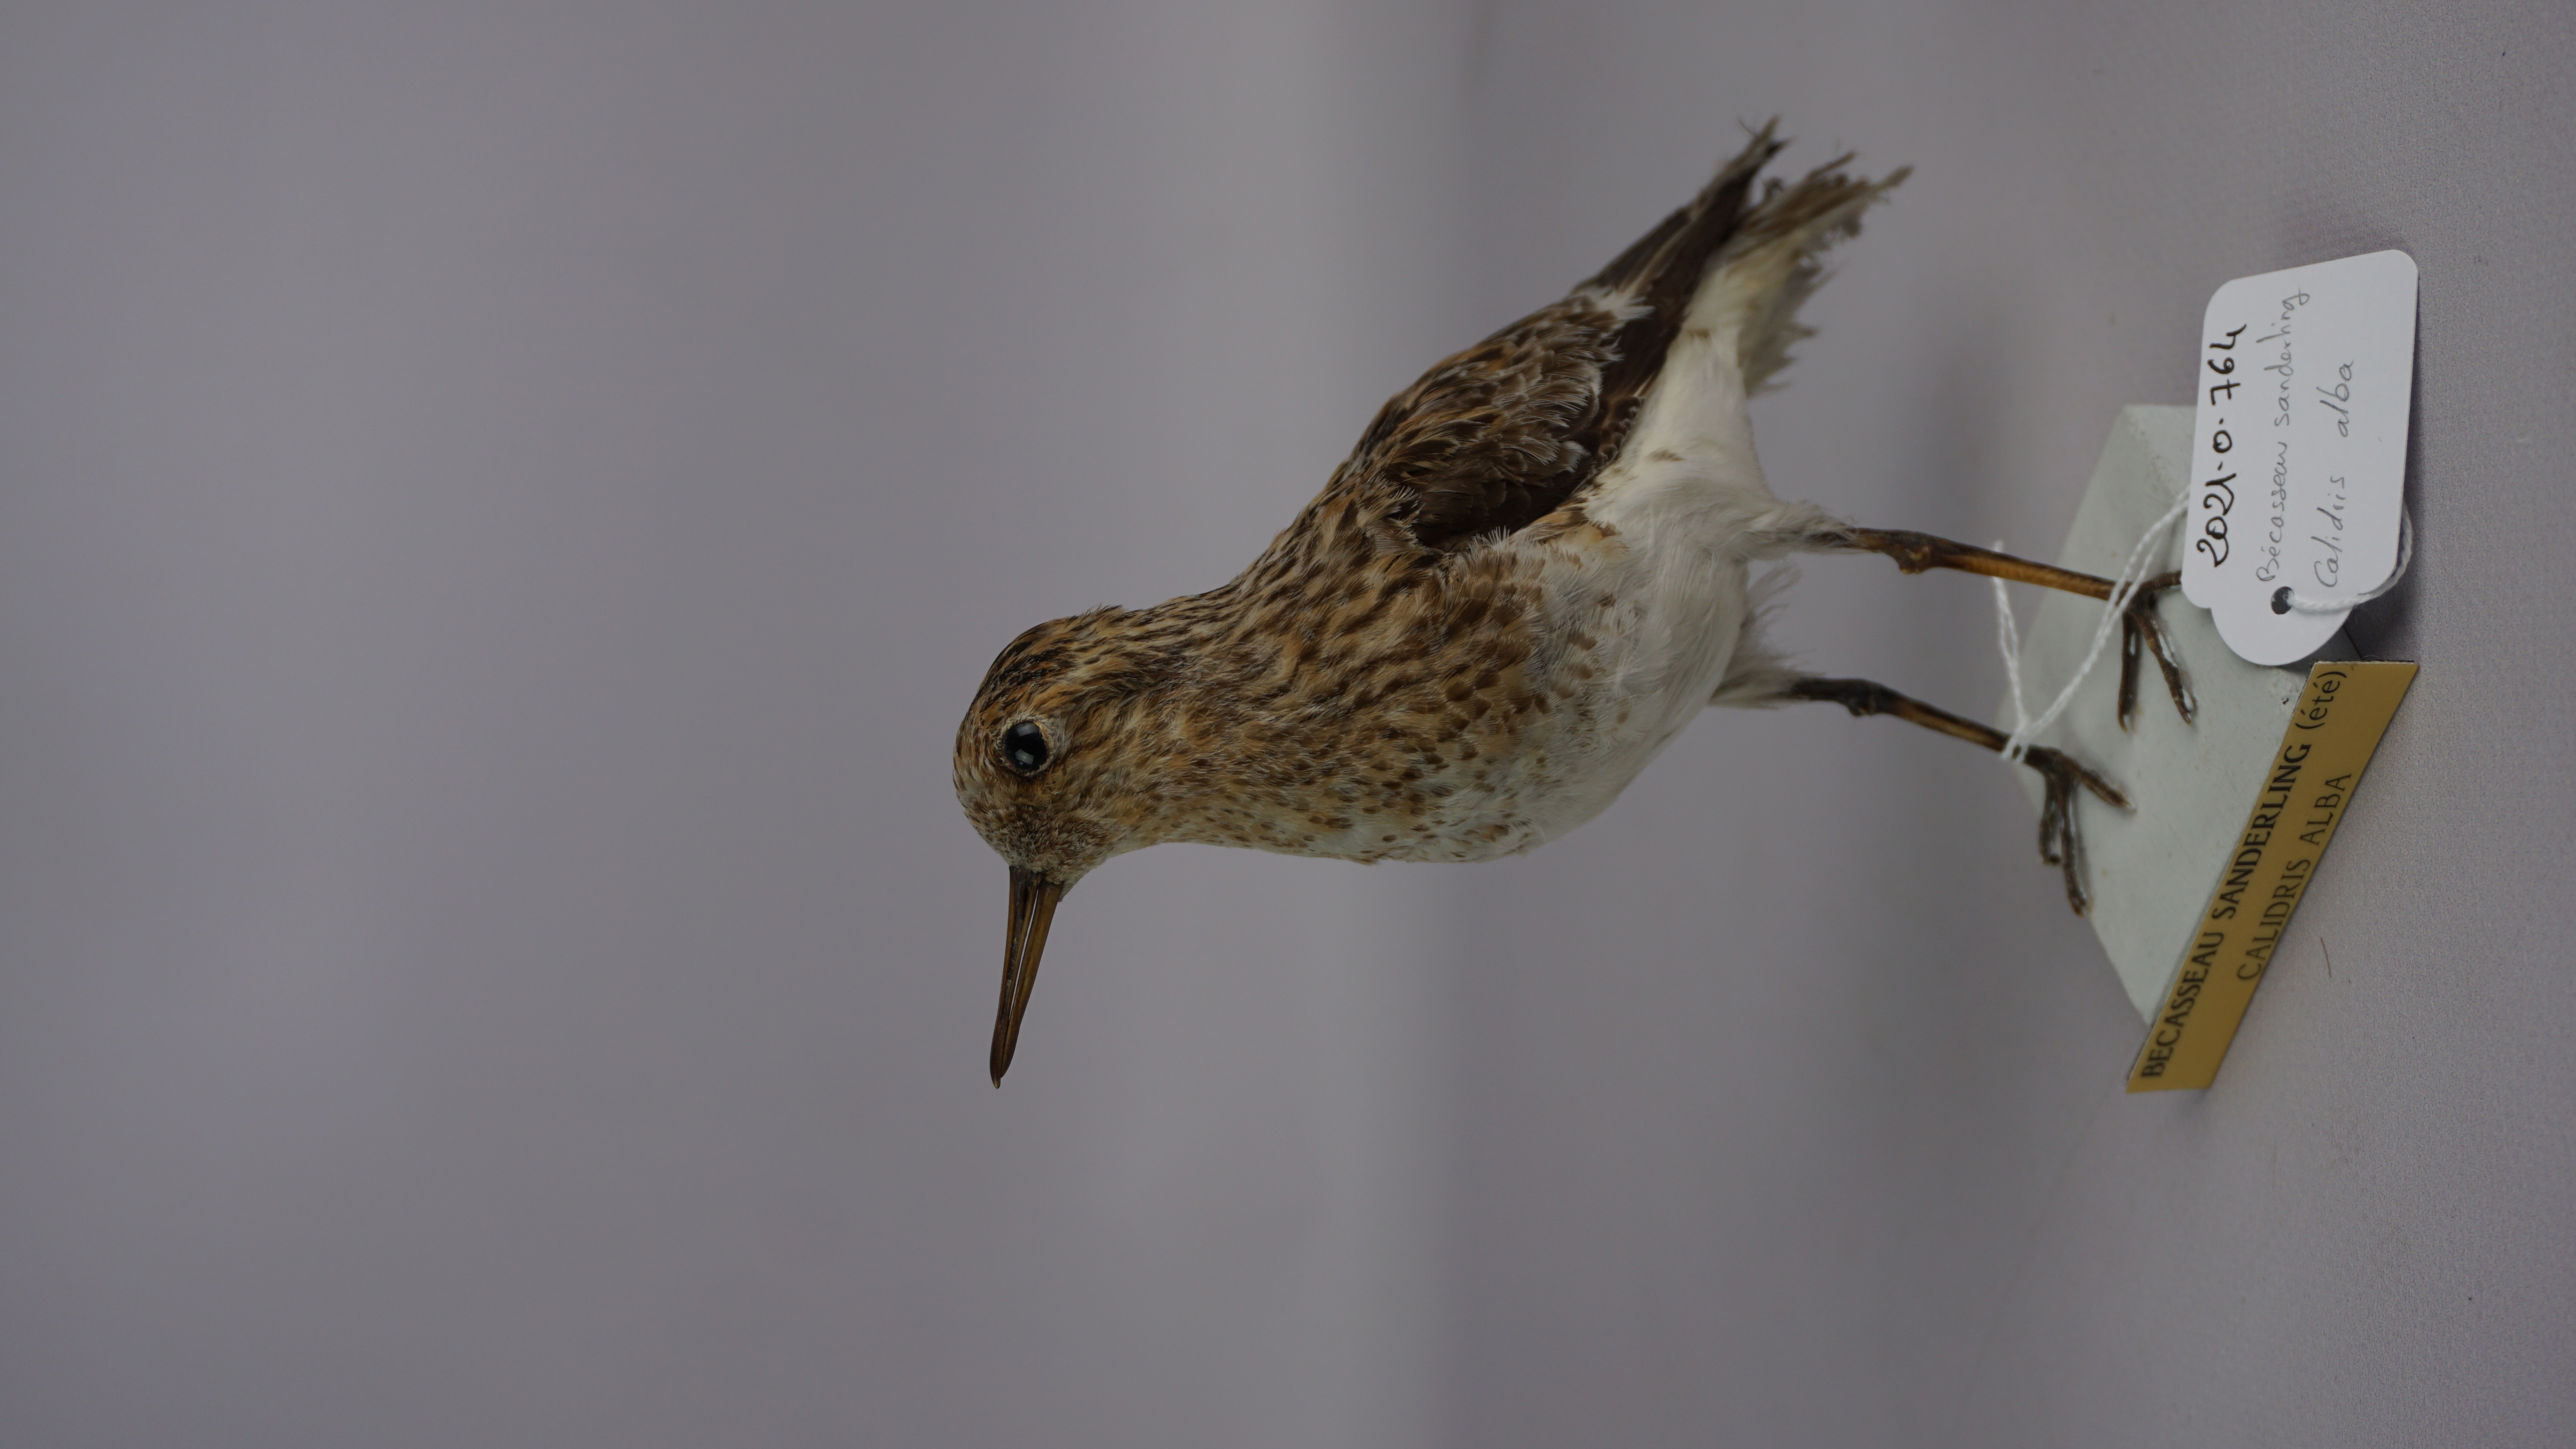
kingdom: Animalia
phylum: Chordata
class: Aves
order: Charadriiformes
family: Scolopacidae
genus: Calidris
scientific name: Calidris alba
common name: Sanderling
